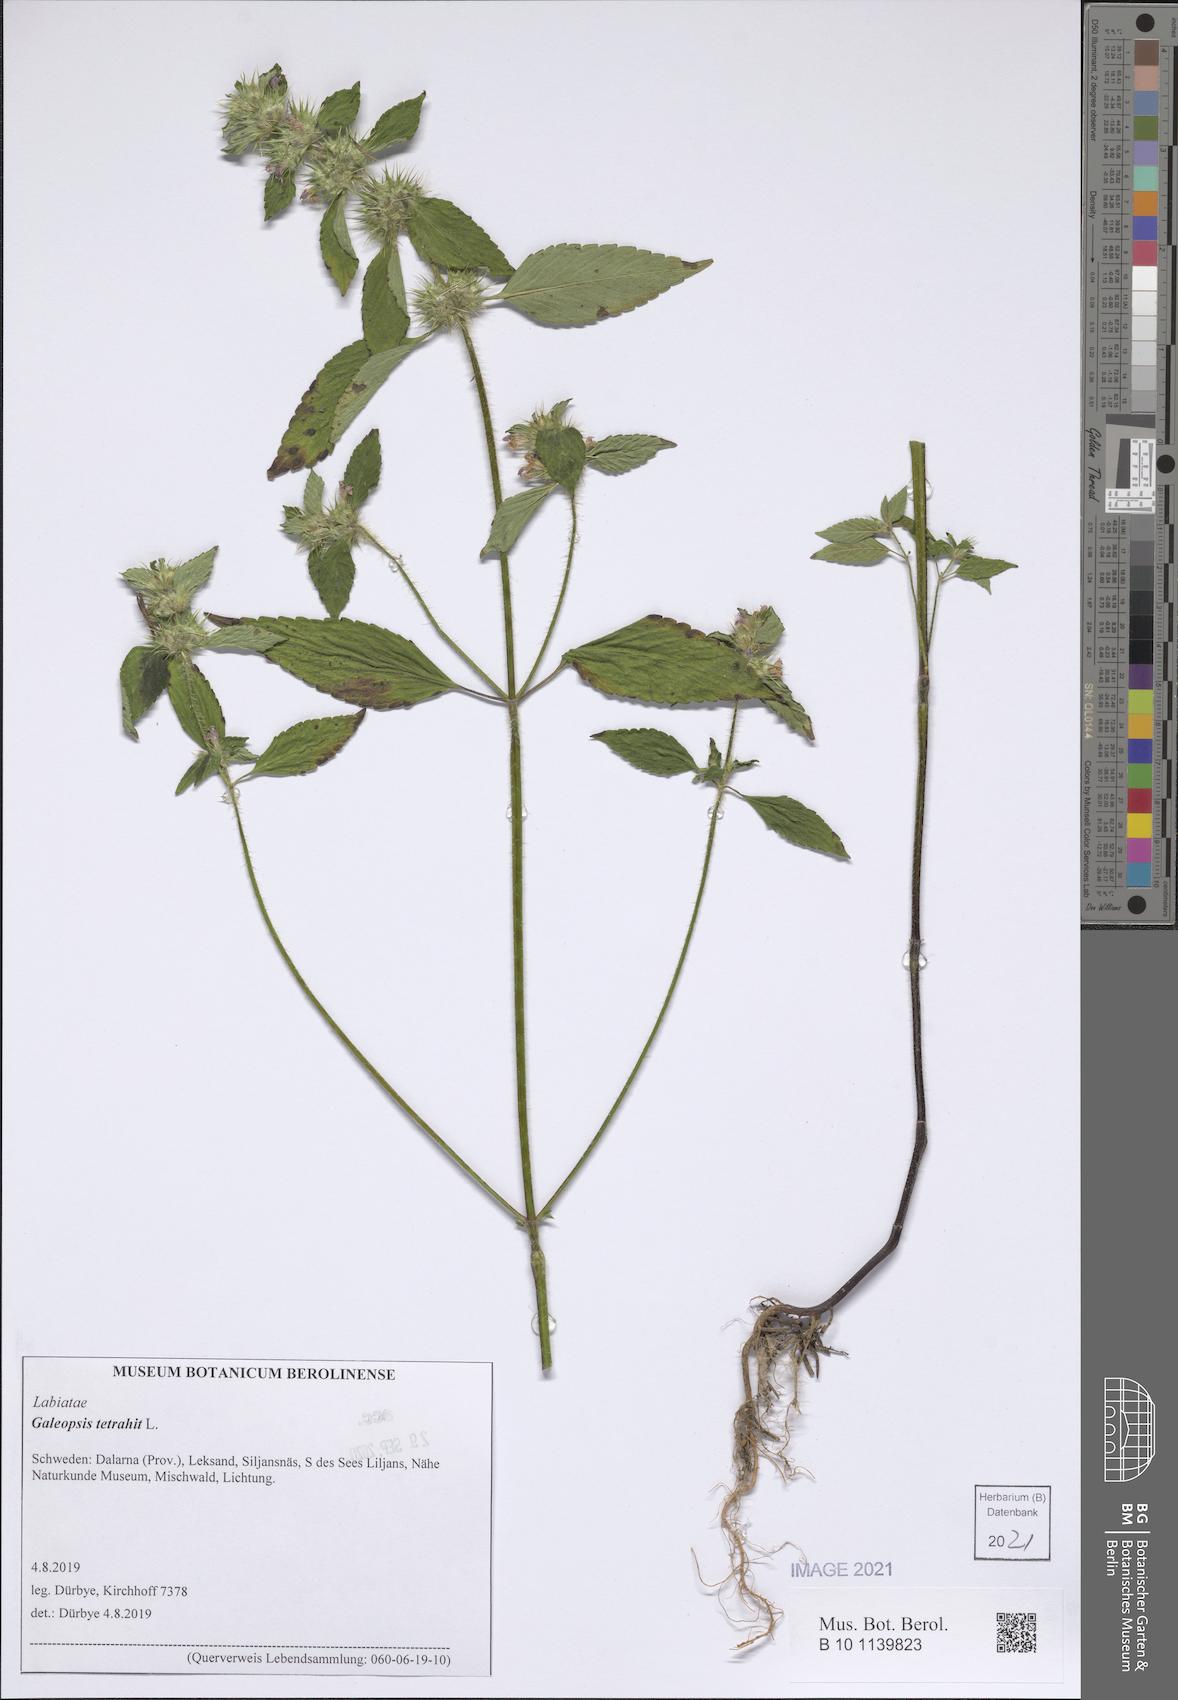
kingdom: Plantae
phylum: Tracheophyta
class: Magnoliopsida
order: Lamiales
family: Lamiaceae
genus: Galeopsis
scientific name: Galeopsis tetrahit
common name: Common hemp-nettle
